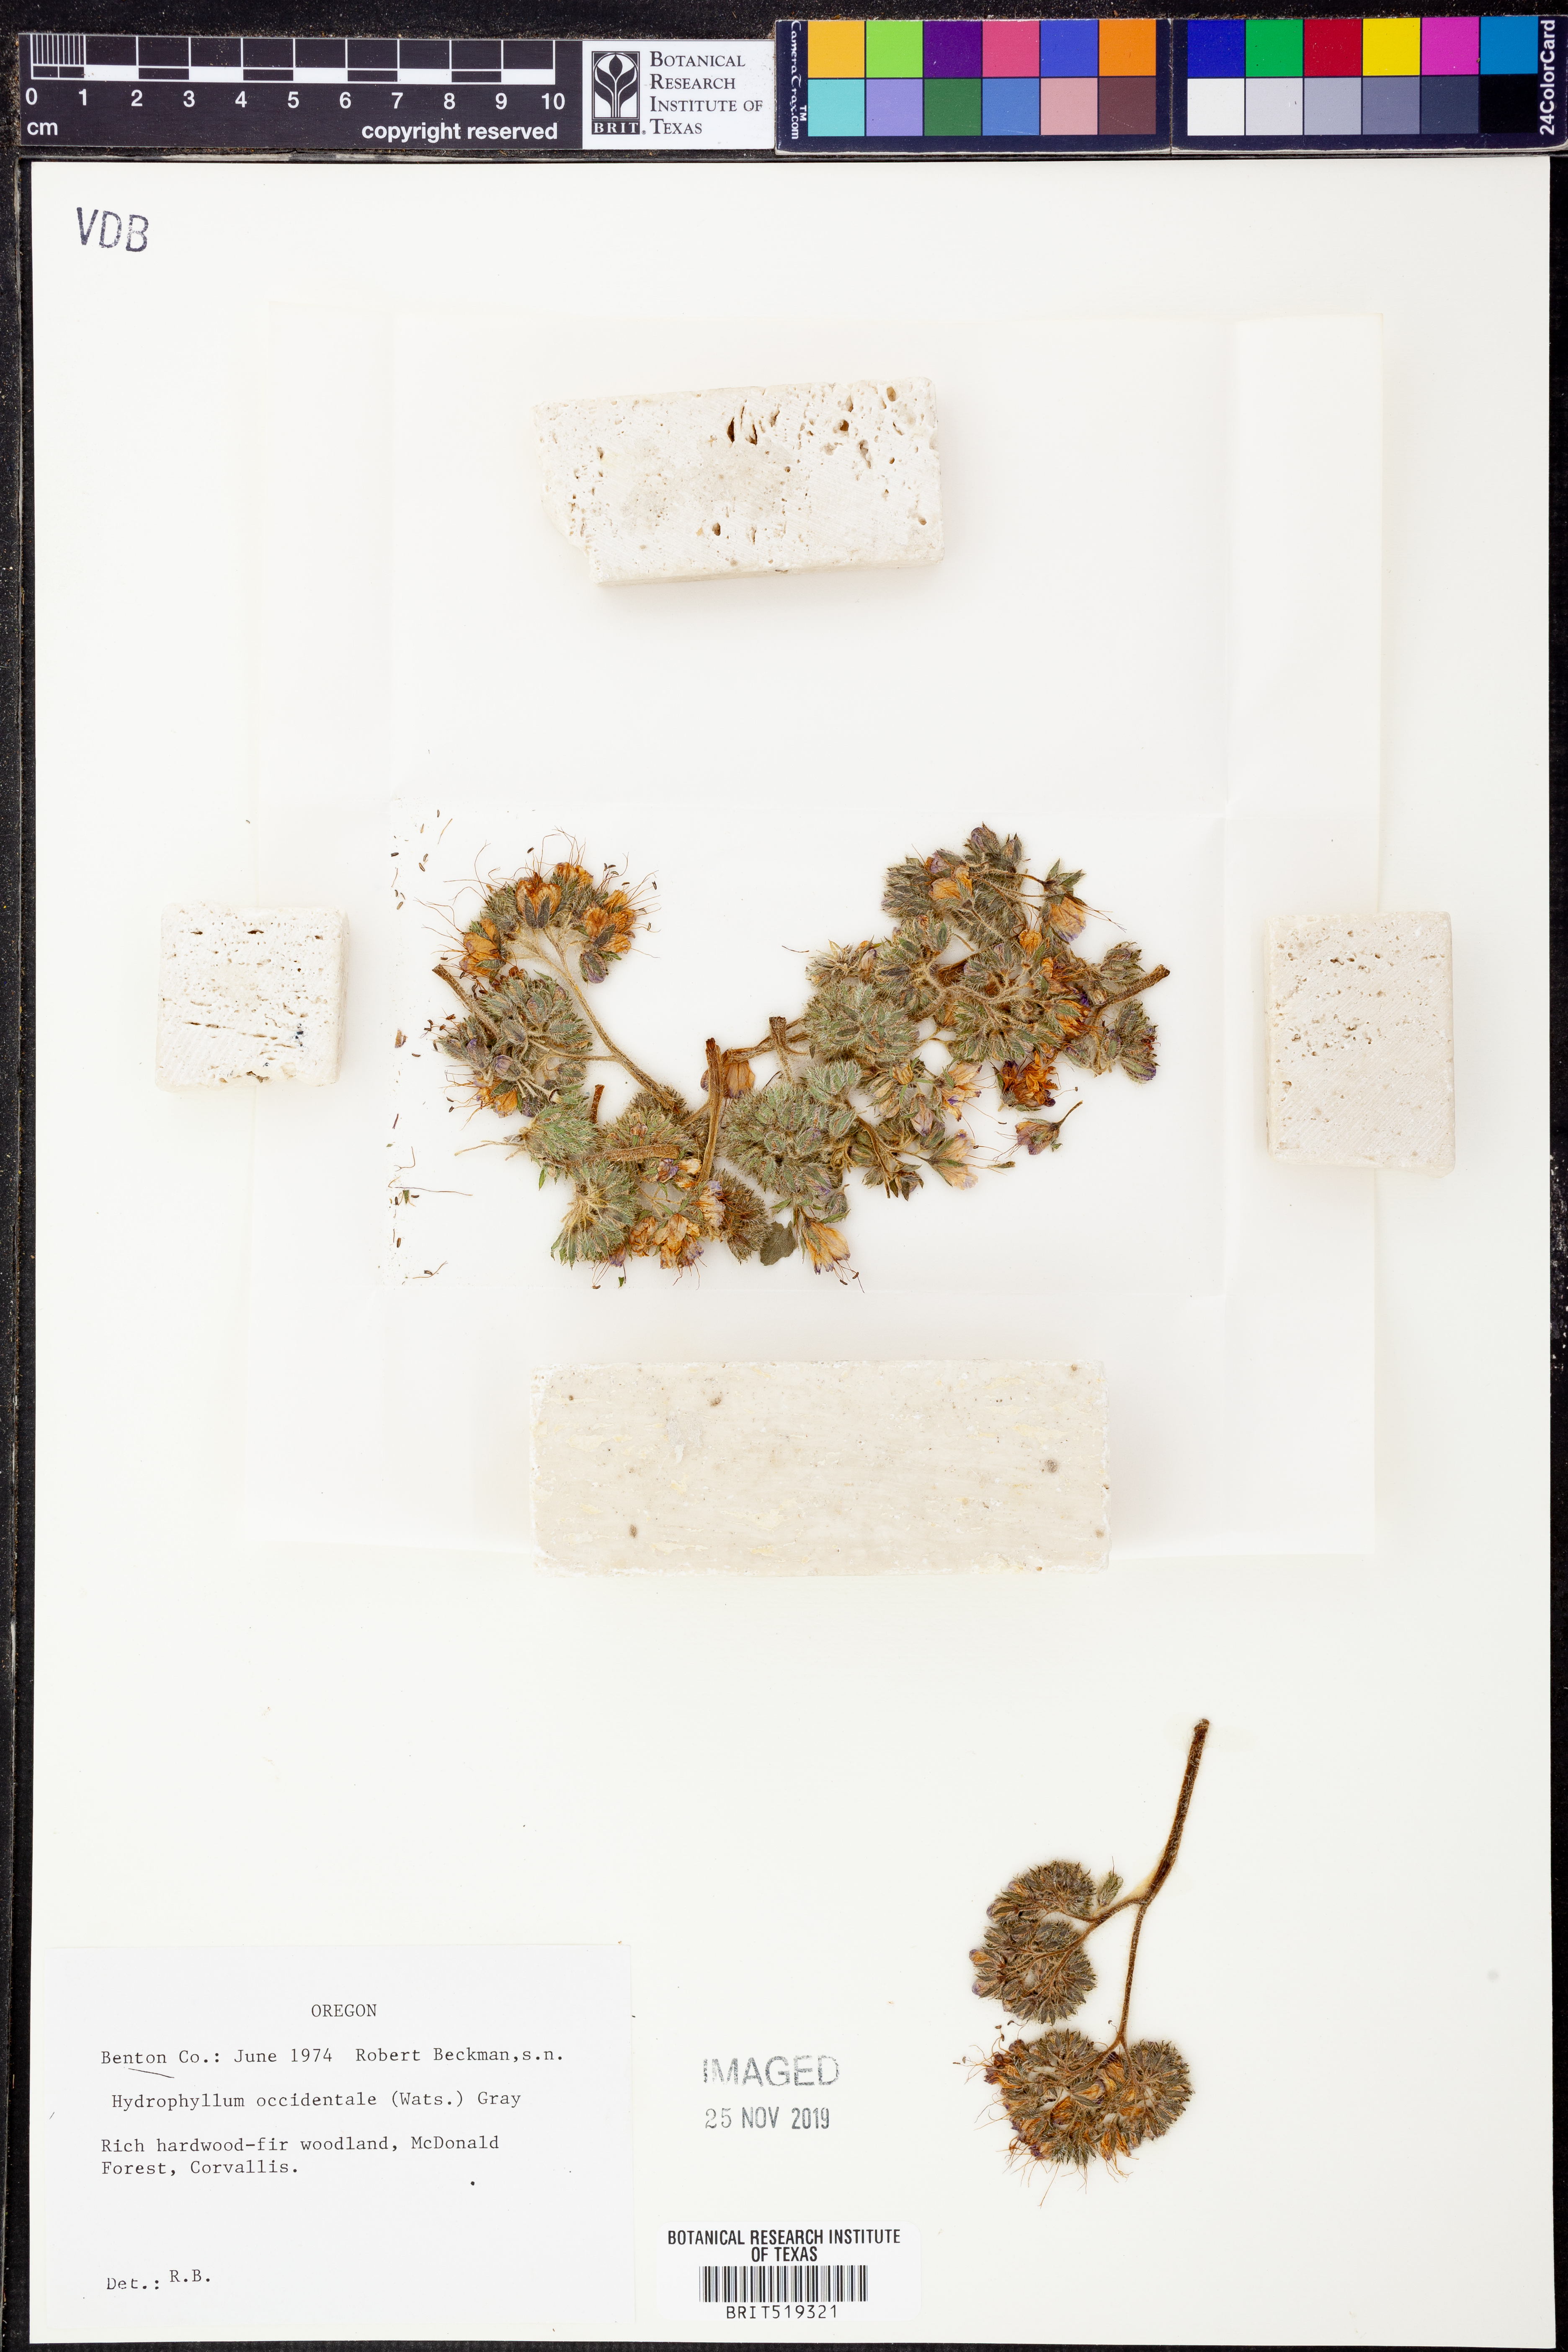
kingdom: Plantae
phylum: Tracheophyta
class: Magnoliopsida
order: Boraginales
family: Hydrophyllaceae
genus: Hydrophyllum
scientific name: Hydrophyllum occidentale
